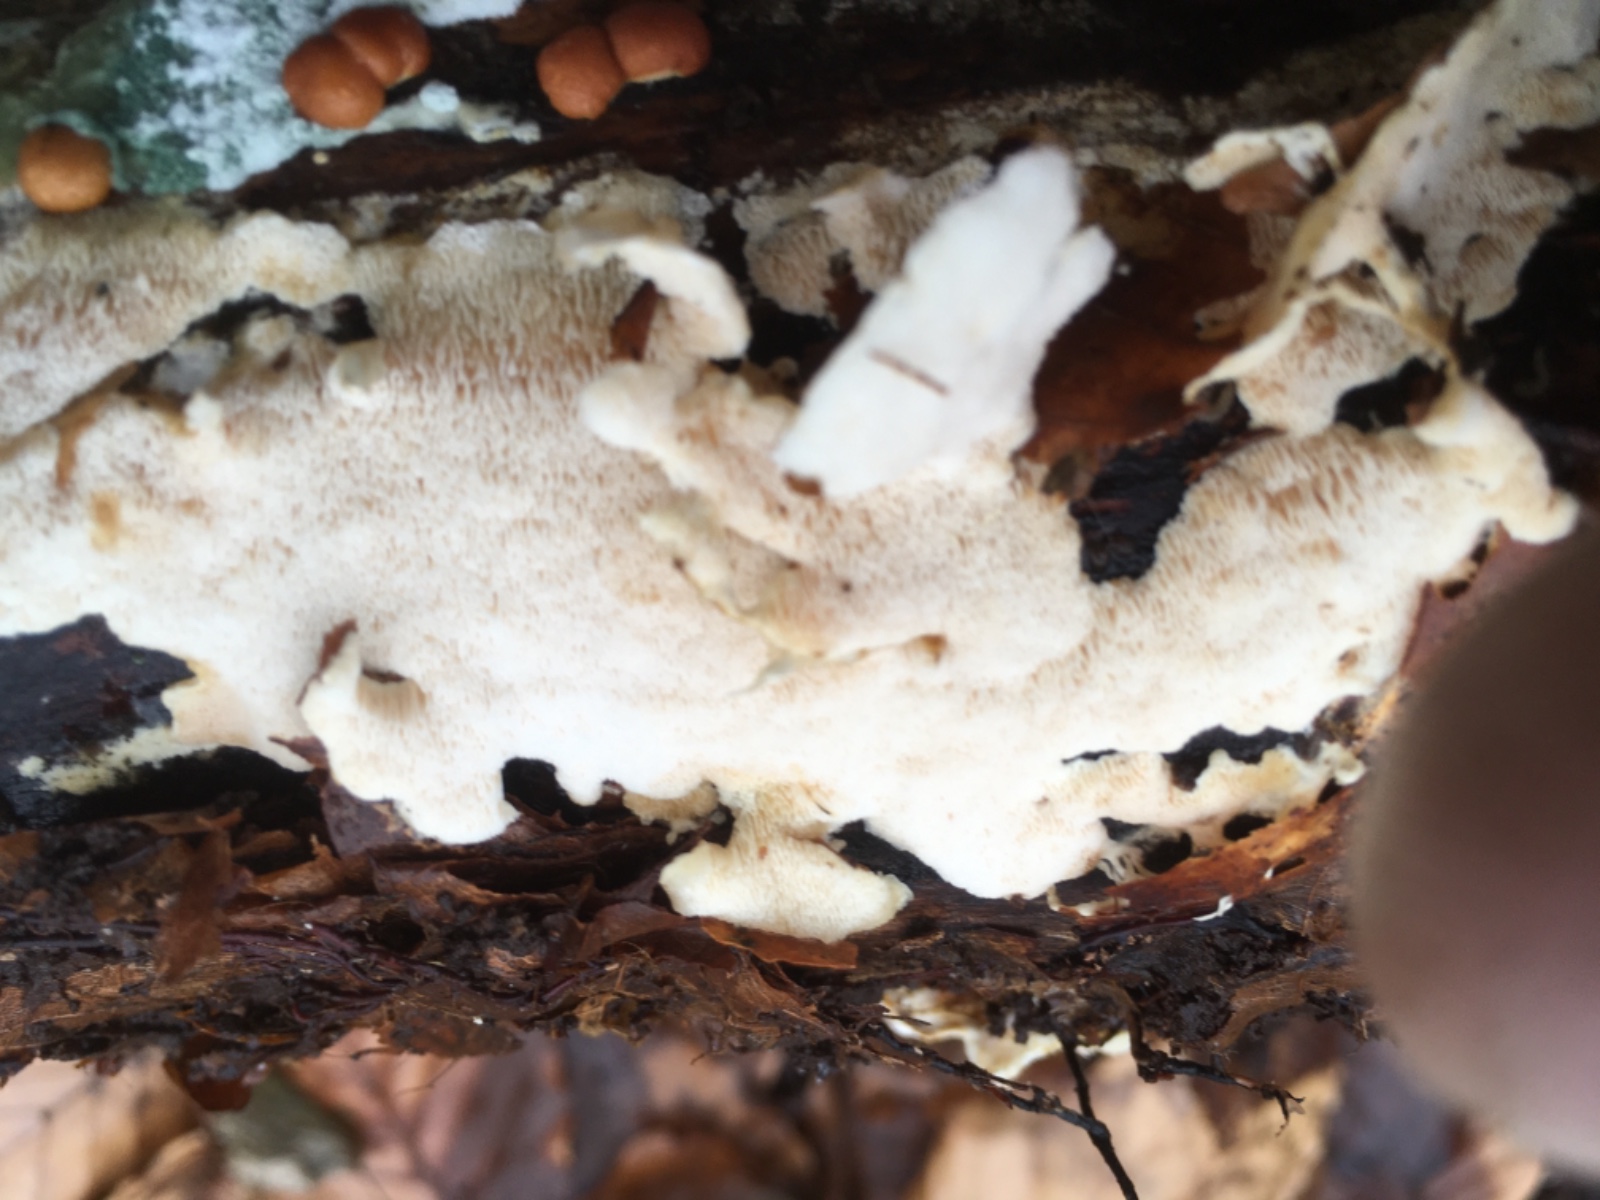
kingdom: Fungi
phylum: Basidiomycota
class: Agaricomycetes
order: Polyporales
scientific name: Polyporales
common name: poresvampordenen
